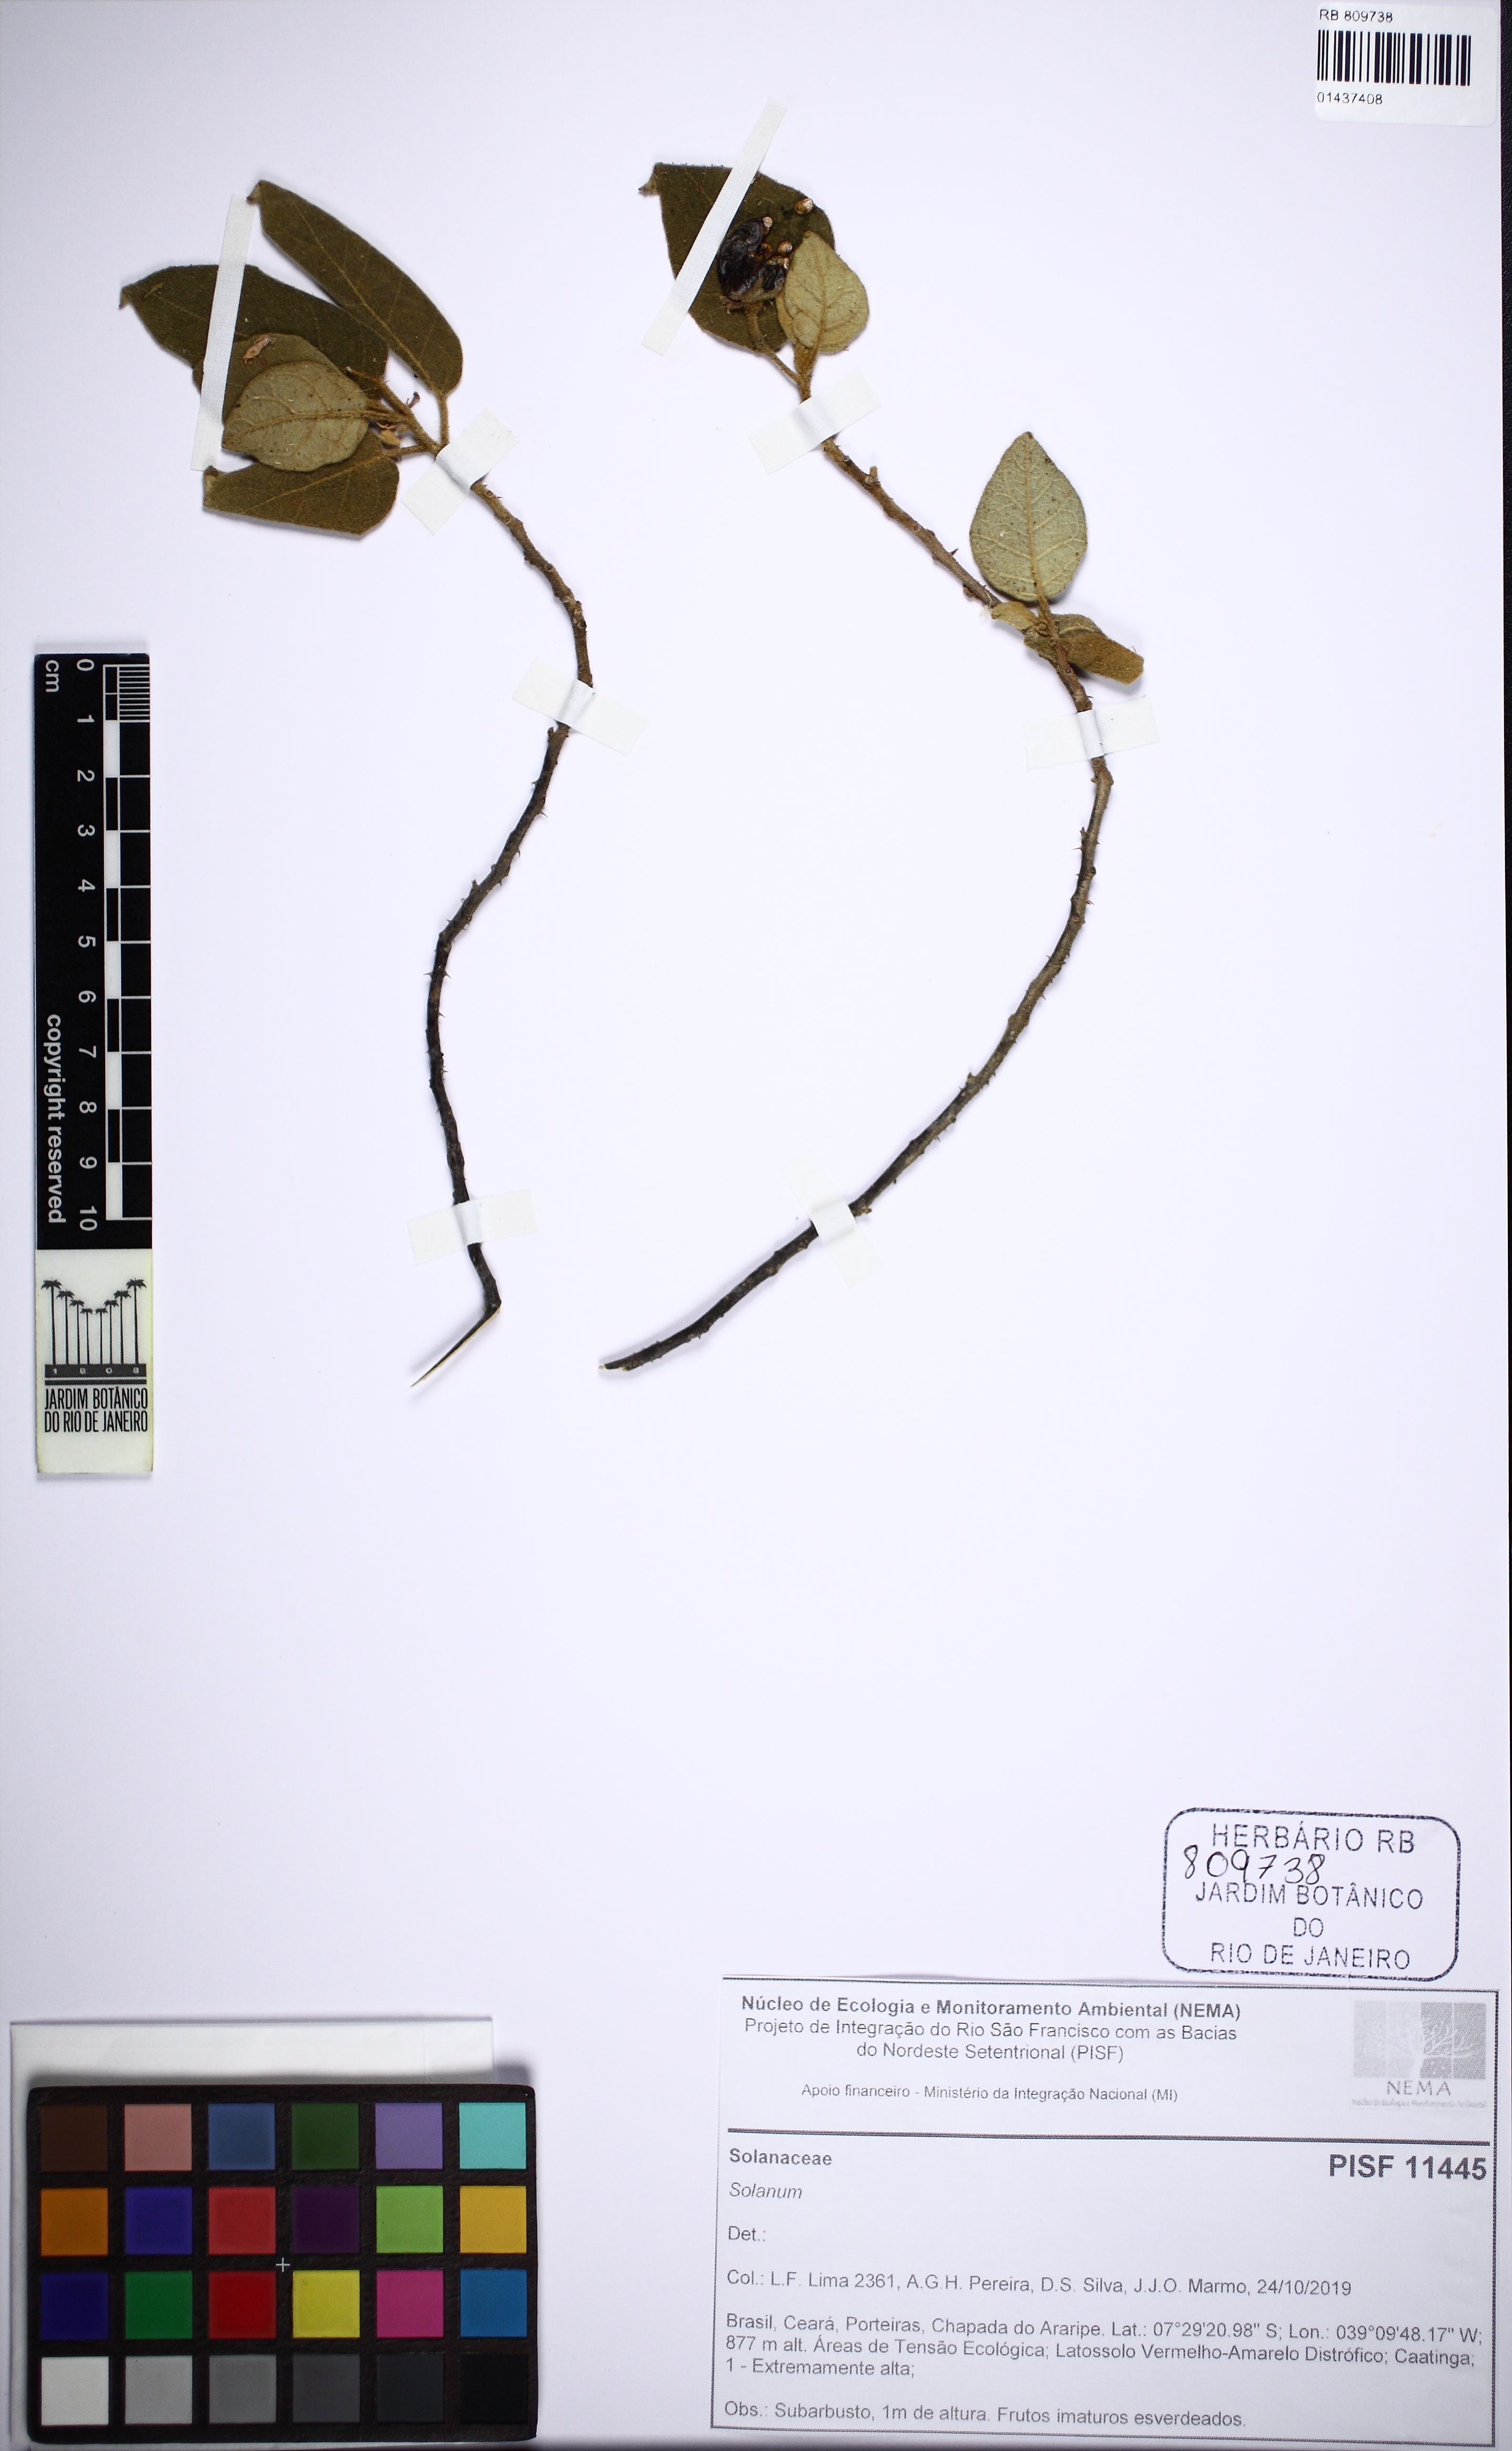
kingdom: Plantae
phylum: Tracheophyta
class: Magnoliopsida
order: Solanales
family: Solanaceae
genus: Solanum
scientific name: Solanum
